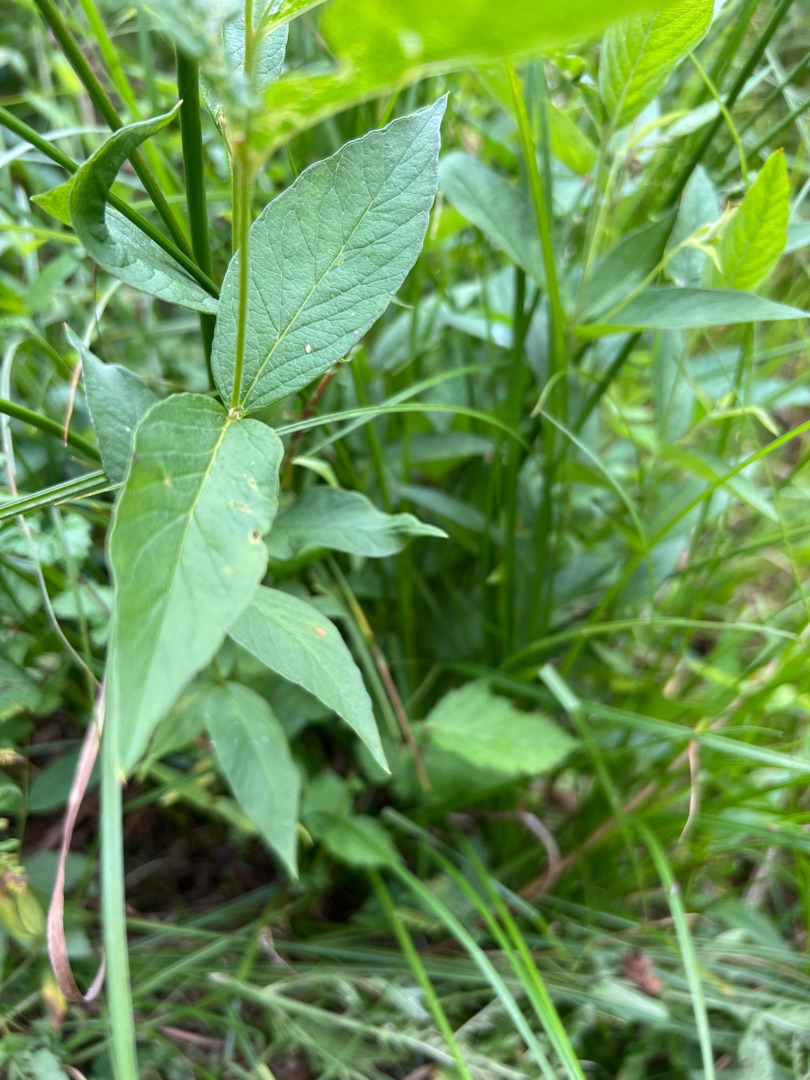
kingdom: Plantae
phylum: Tracheophyta
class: Magnoliopsida
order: Ericales
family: Primulaceae
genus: Lysimachia
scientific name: Lysimachia vulgaris
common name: Almindelig fredløs
